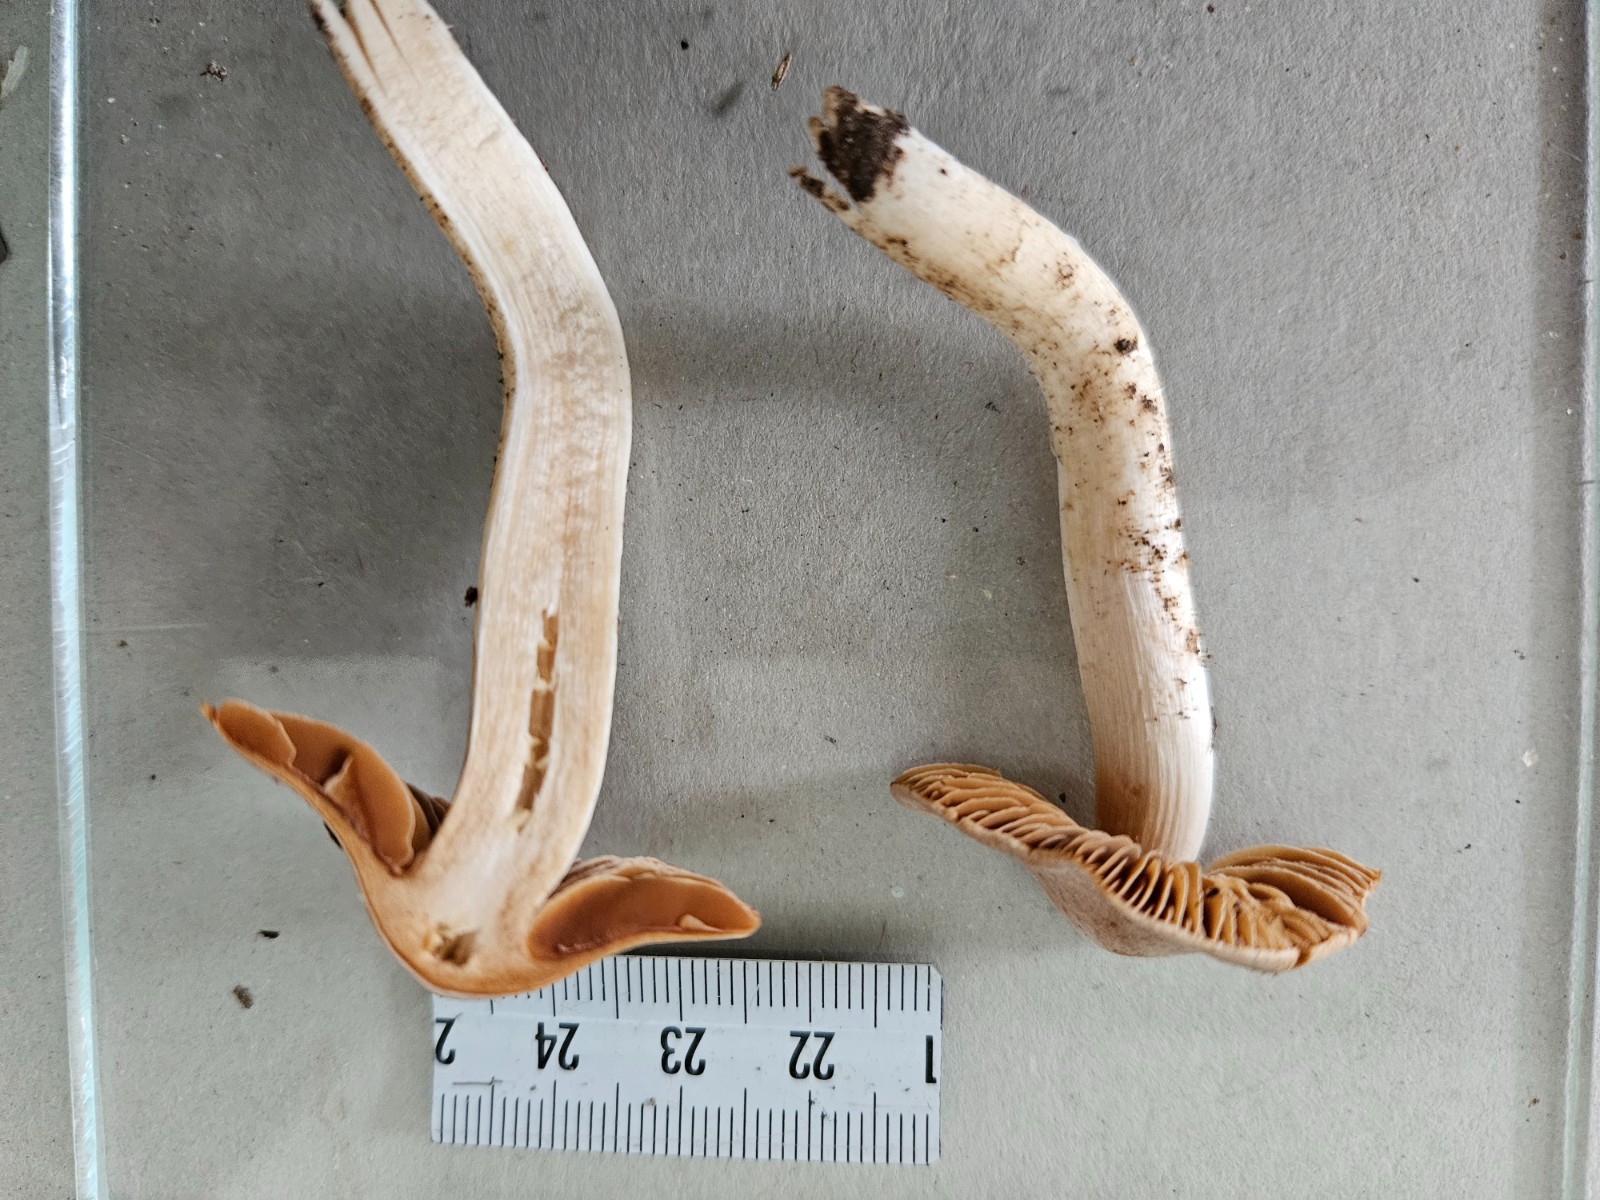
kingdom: Fungi
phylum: Basidiomycota
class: Agaricomycetes
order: Agaricales
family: Cortinariaceae
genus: Cortinarius
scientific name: Cortinarius
